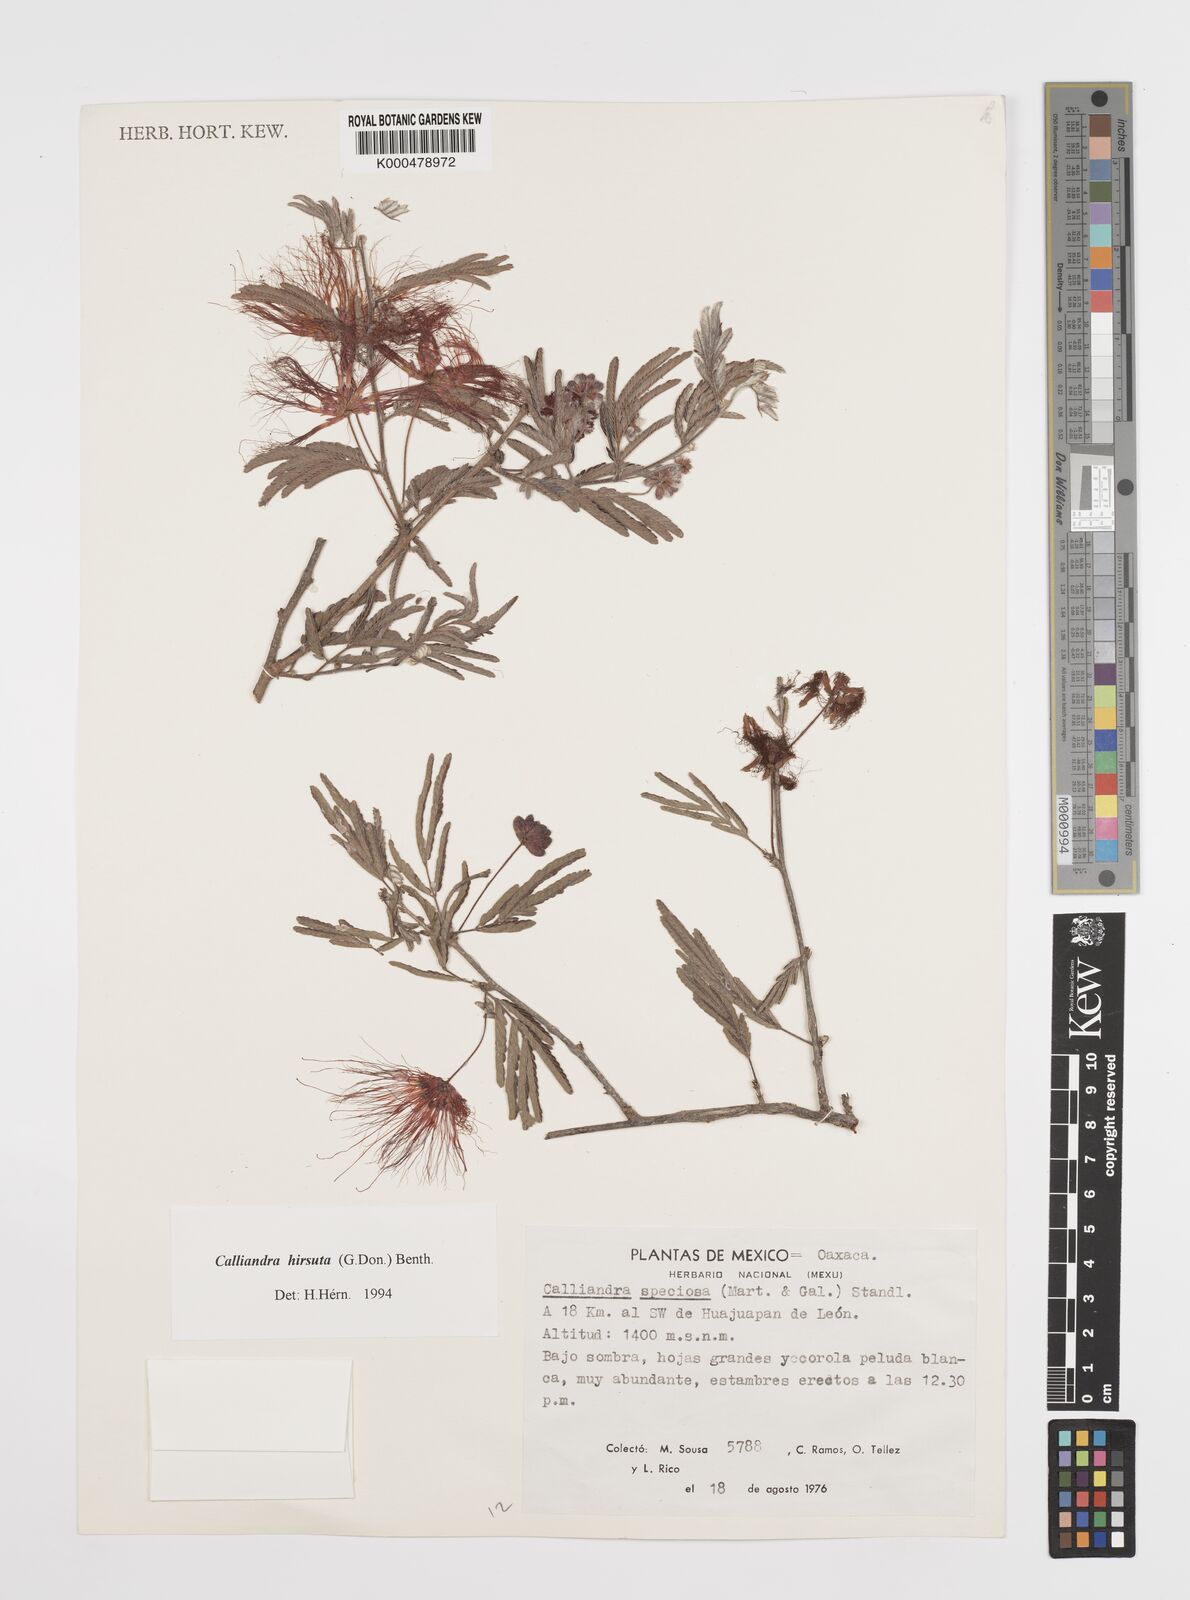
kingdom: Plantae
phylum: Tracheophyta
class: Magnoliopsida
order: Fabales
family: Fabaceae
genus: Calliandra
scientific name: Calliandra hirsuta
